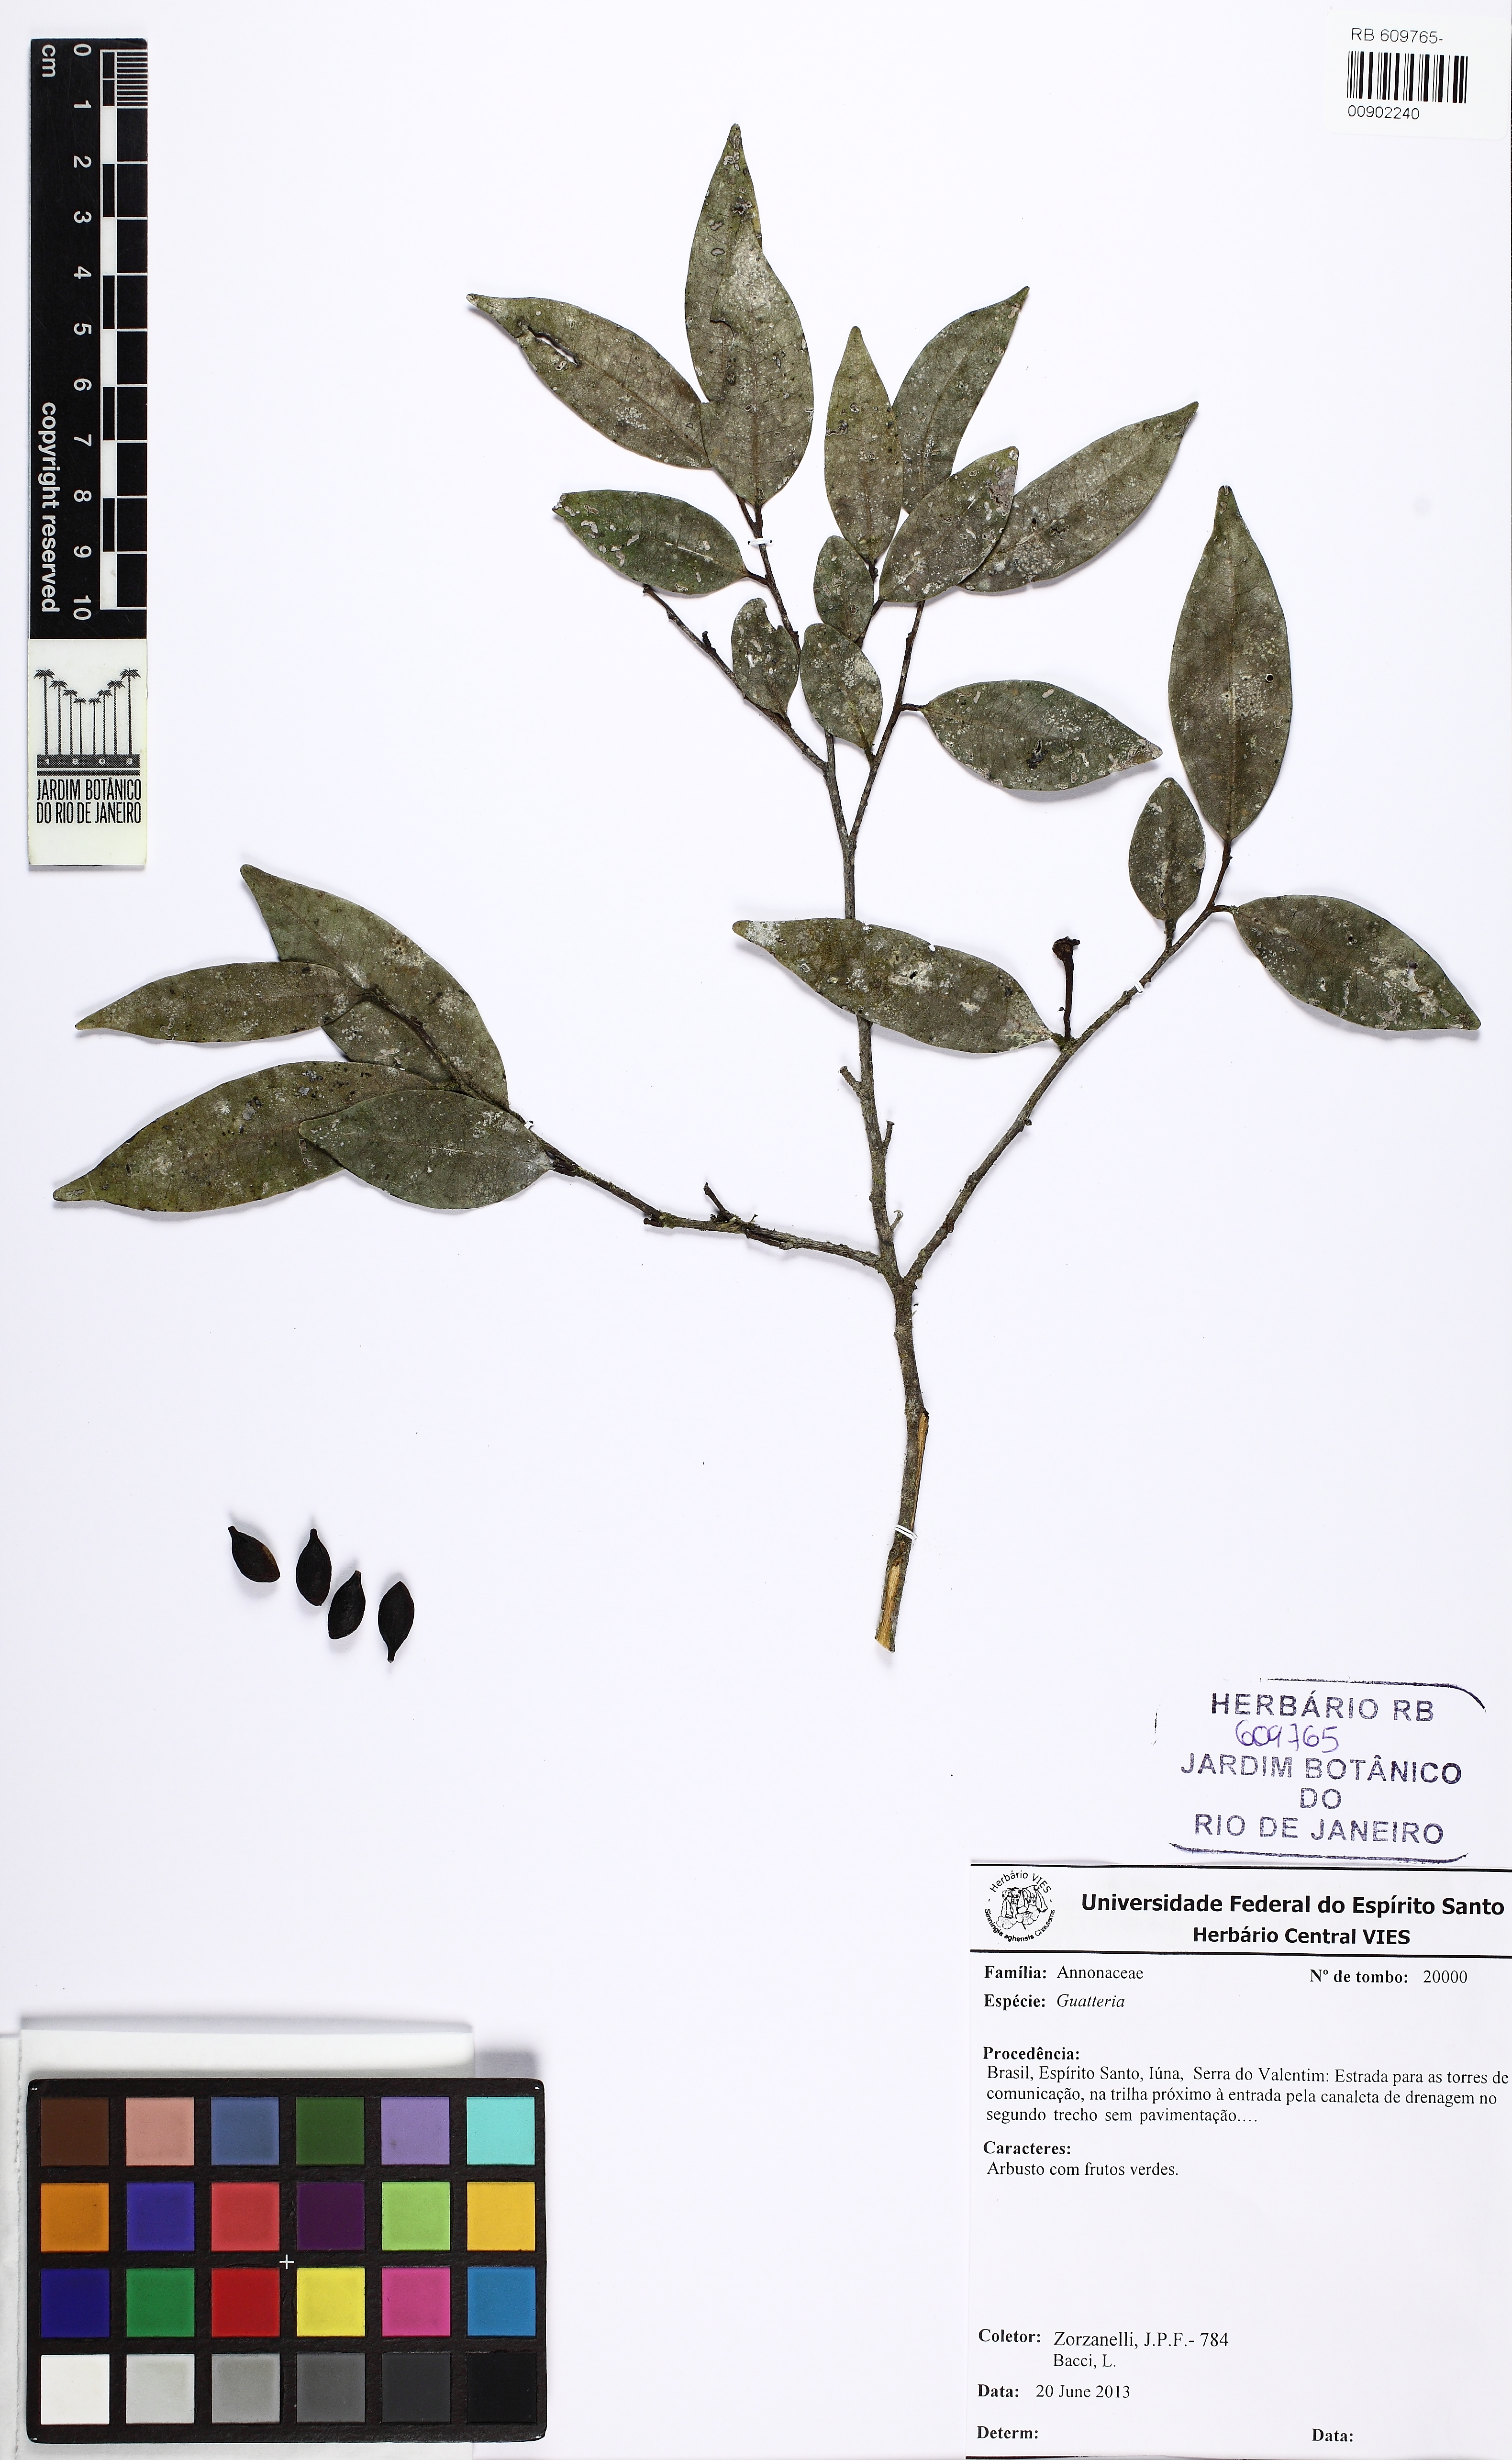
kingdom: Plantae
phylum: Tracheophyta
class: Magnoliopsida
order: Magnoliales
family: Annonaceae
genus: Guatteria
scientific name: Guatteria australis
